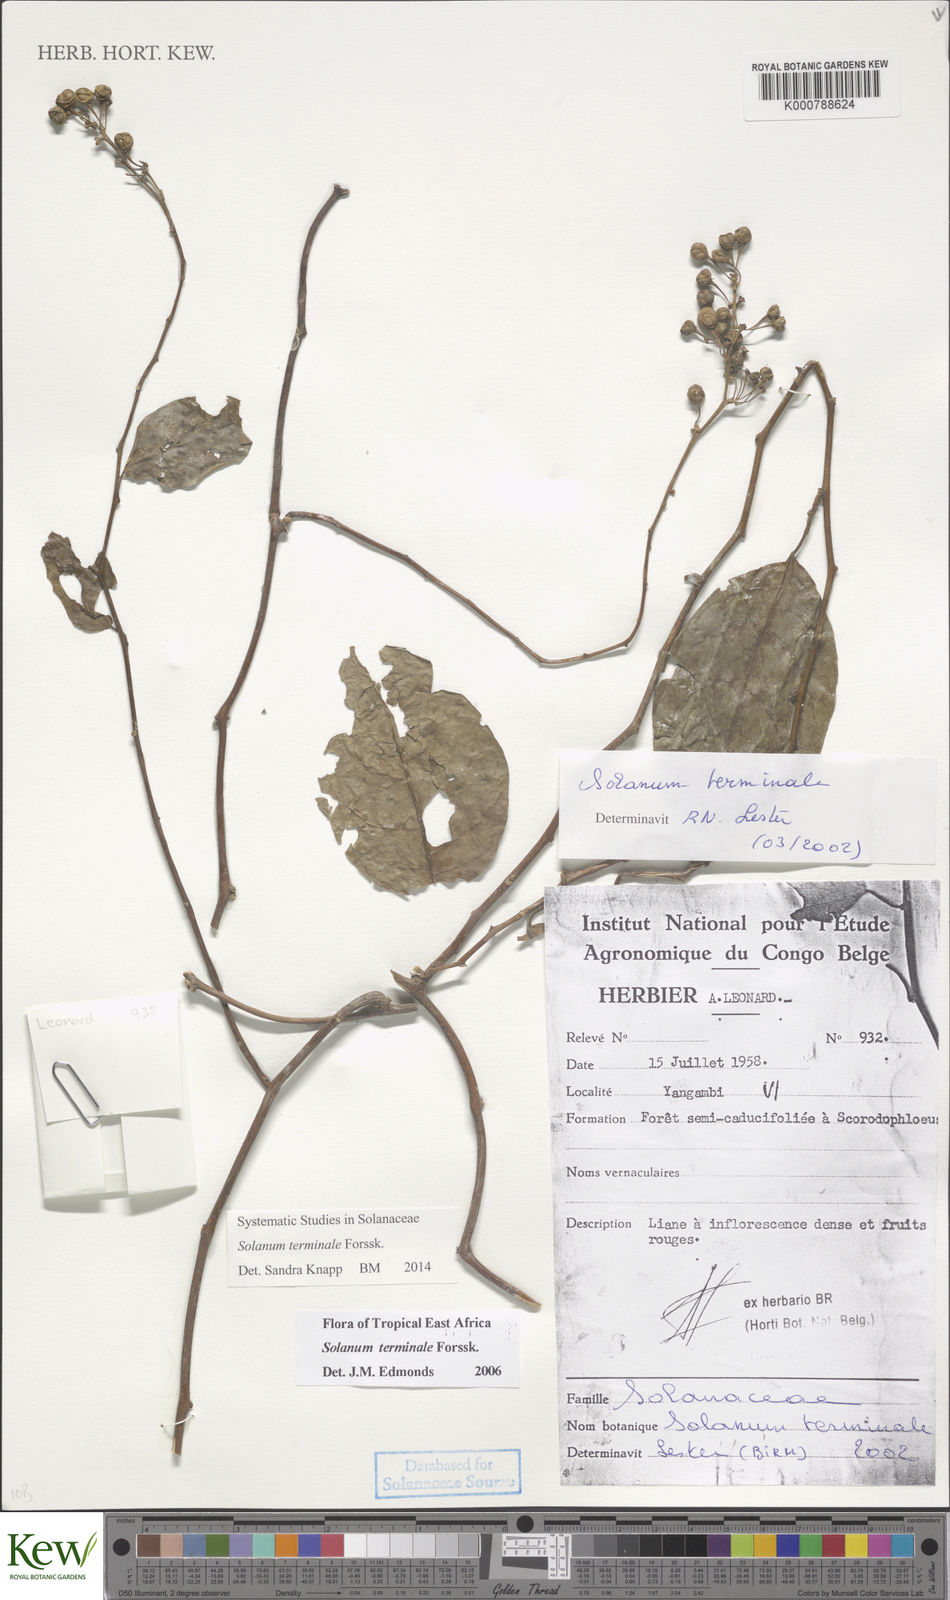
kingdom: Plantae
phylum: Tracheophyta
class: Magnoliopsida
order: Solanales
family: Solanaceae
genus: Solanum
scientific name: Solanum terminale
